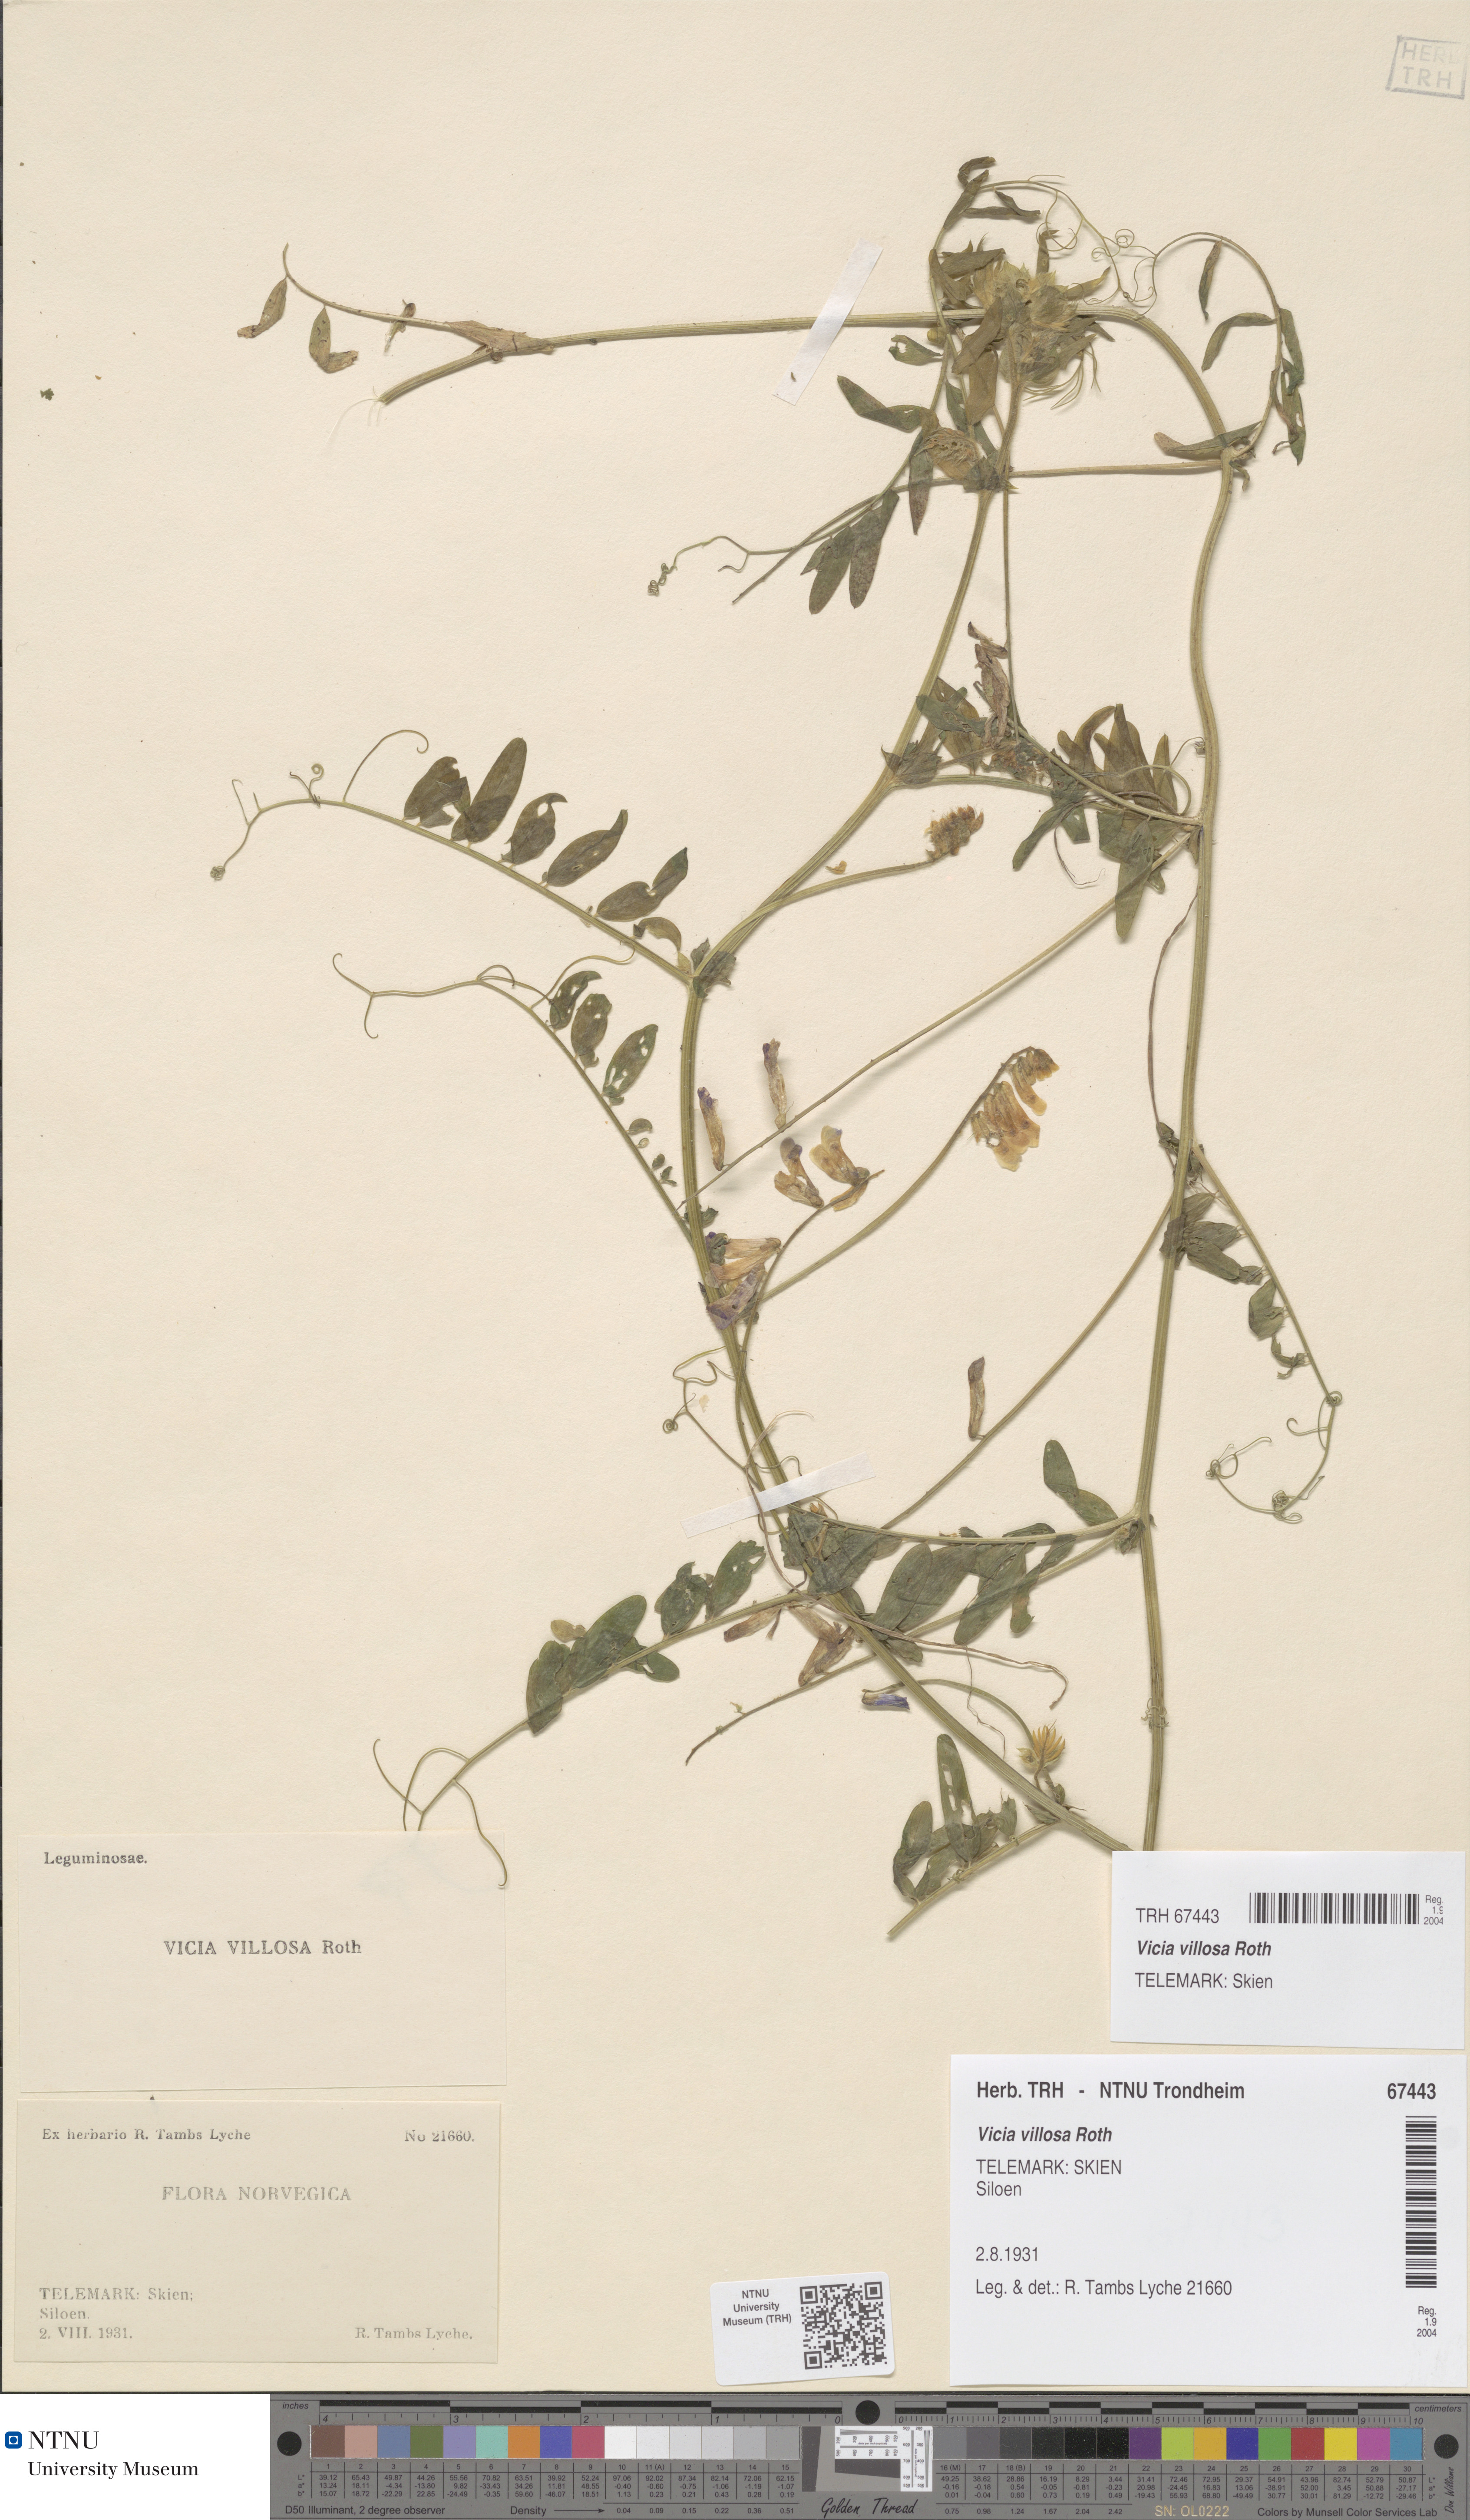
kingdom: Plantae
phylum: Tracheophyta
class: Magnoliopsida
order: Fabales
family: Fabaceae
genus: Vicia
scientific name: Vicia villosa
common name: Fodder vetch
